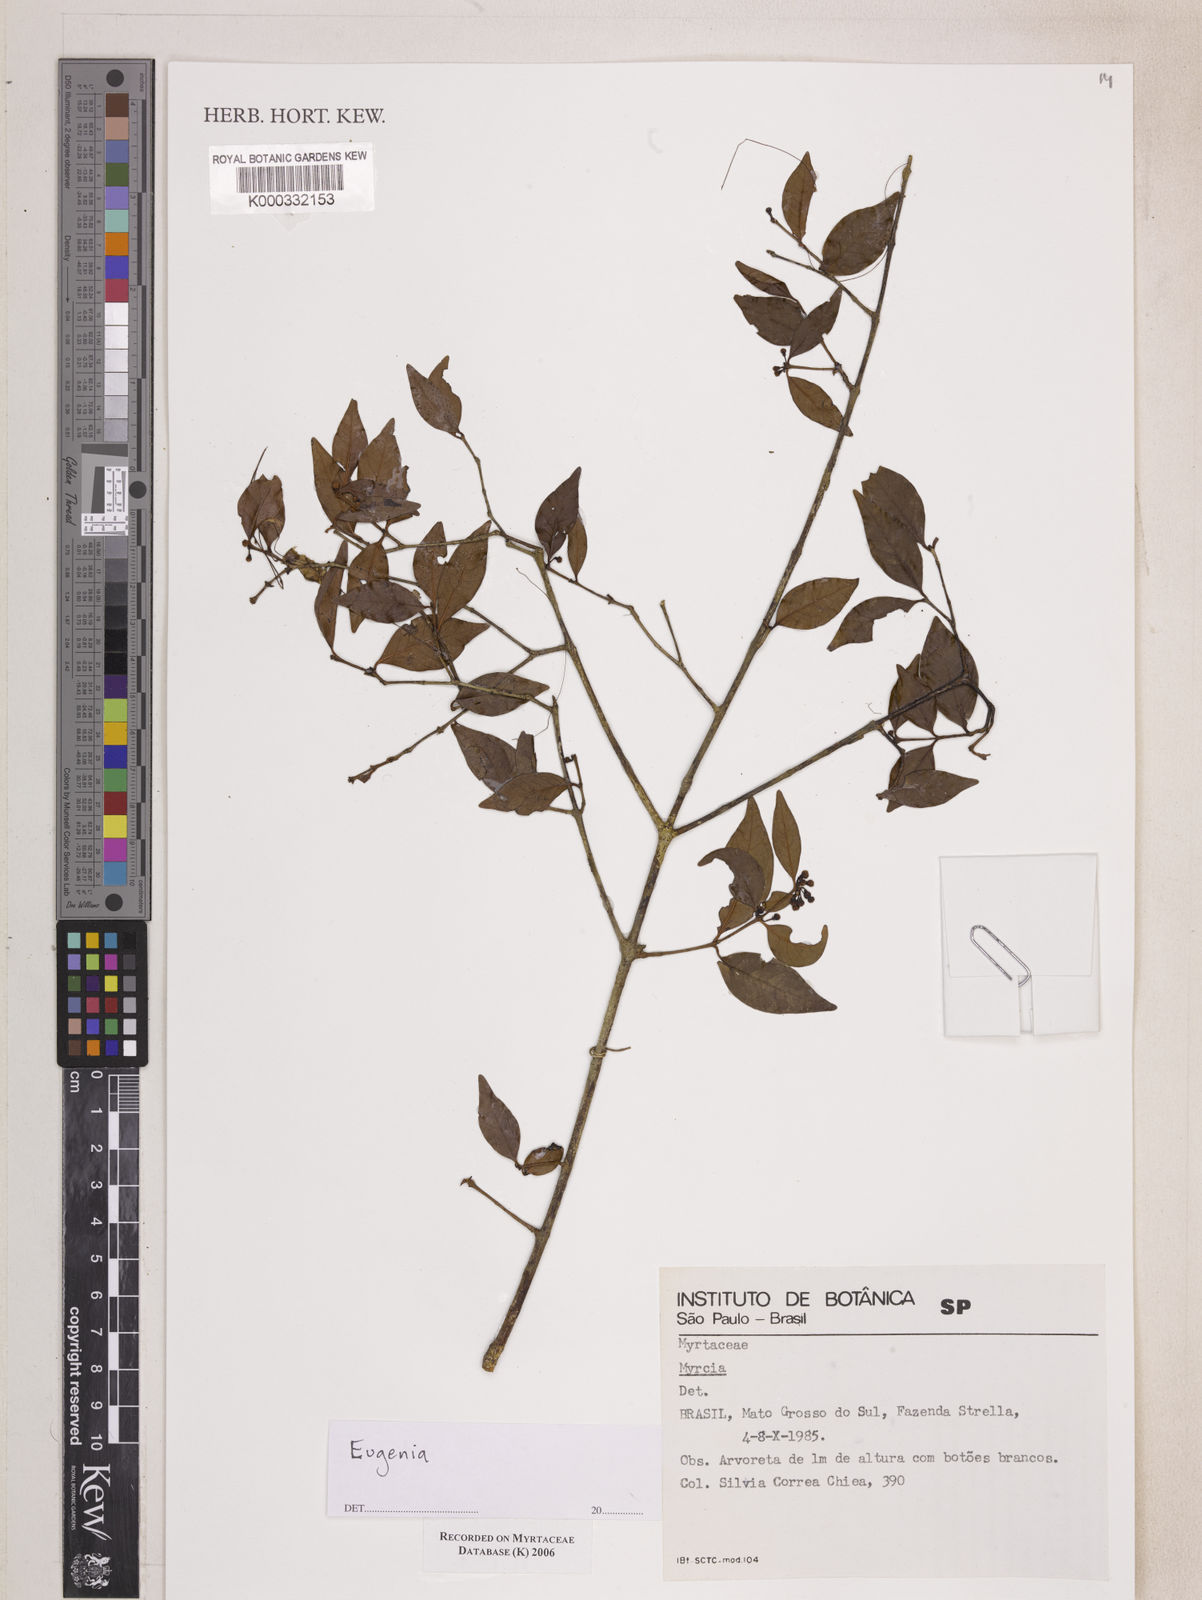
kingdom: Plantae
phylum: Tracheophyta
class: Magnoliopsida
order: Myrtales
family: Myrtaceae
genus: Myrcia
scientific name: Myrcia
